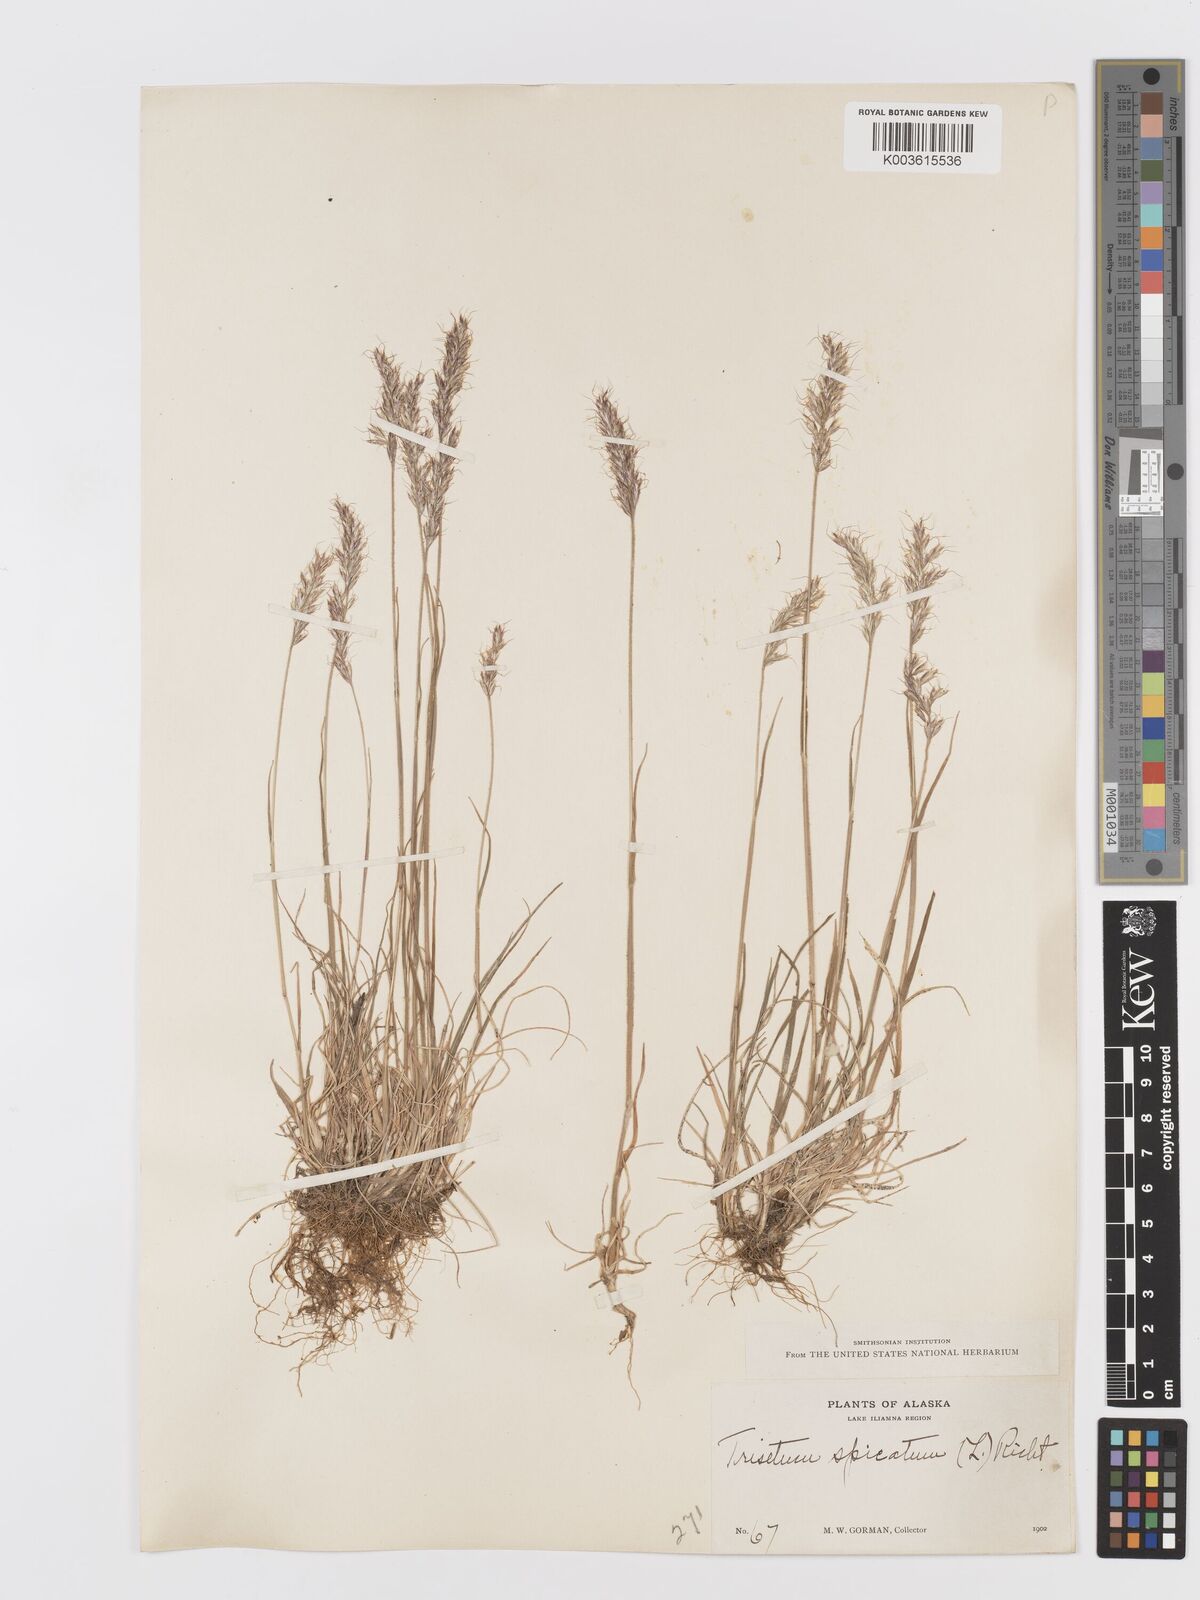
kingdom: Plantae
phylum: Tracheophyta
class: Liliopsida
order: Poales
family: Poaceae
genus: Koeleria
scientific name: Koeleria spicata
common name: Mountain trisetum
